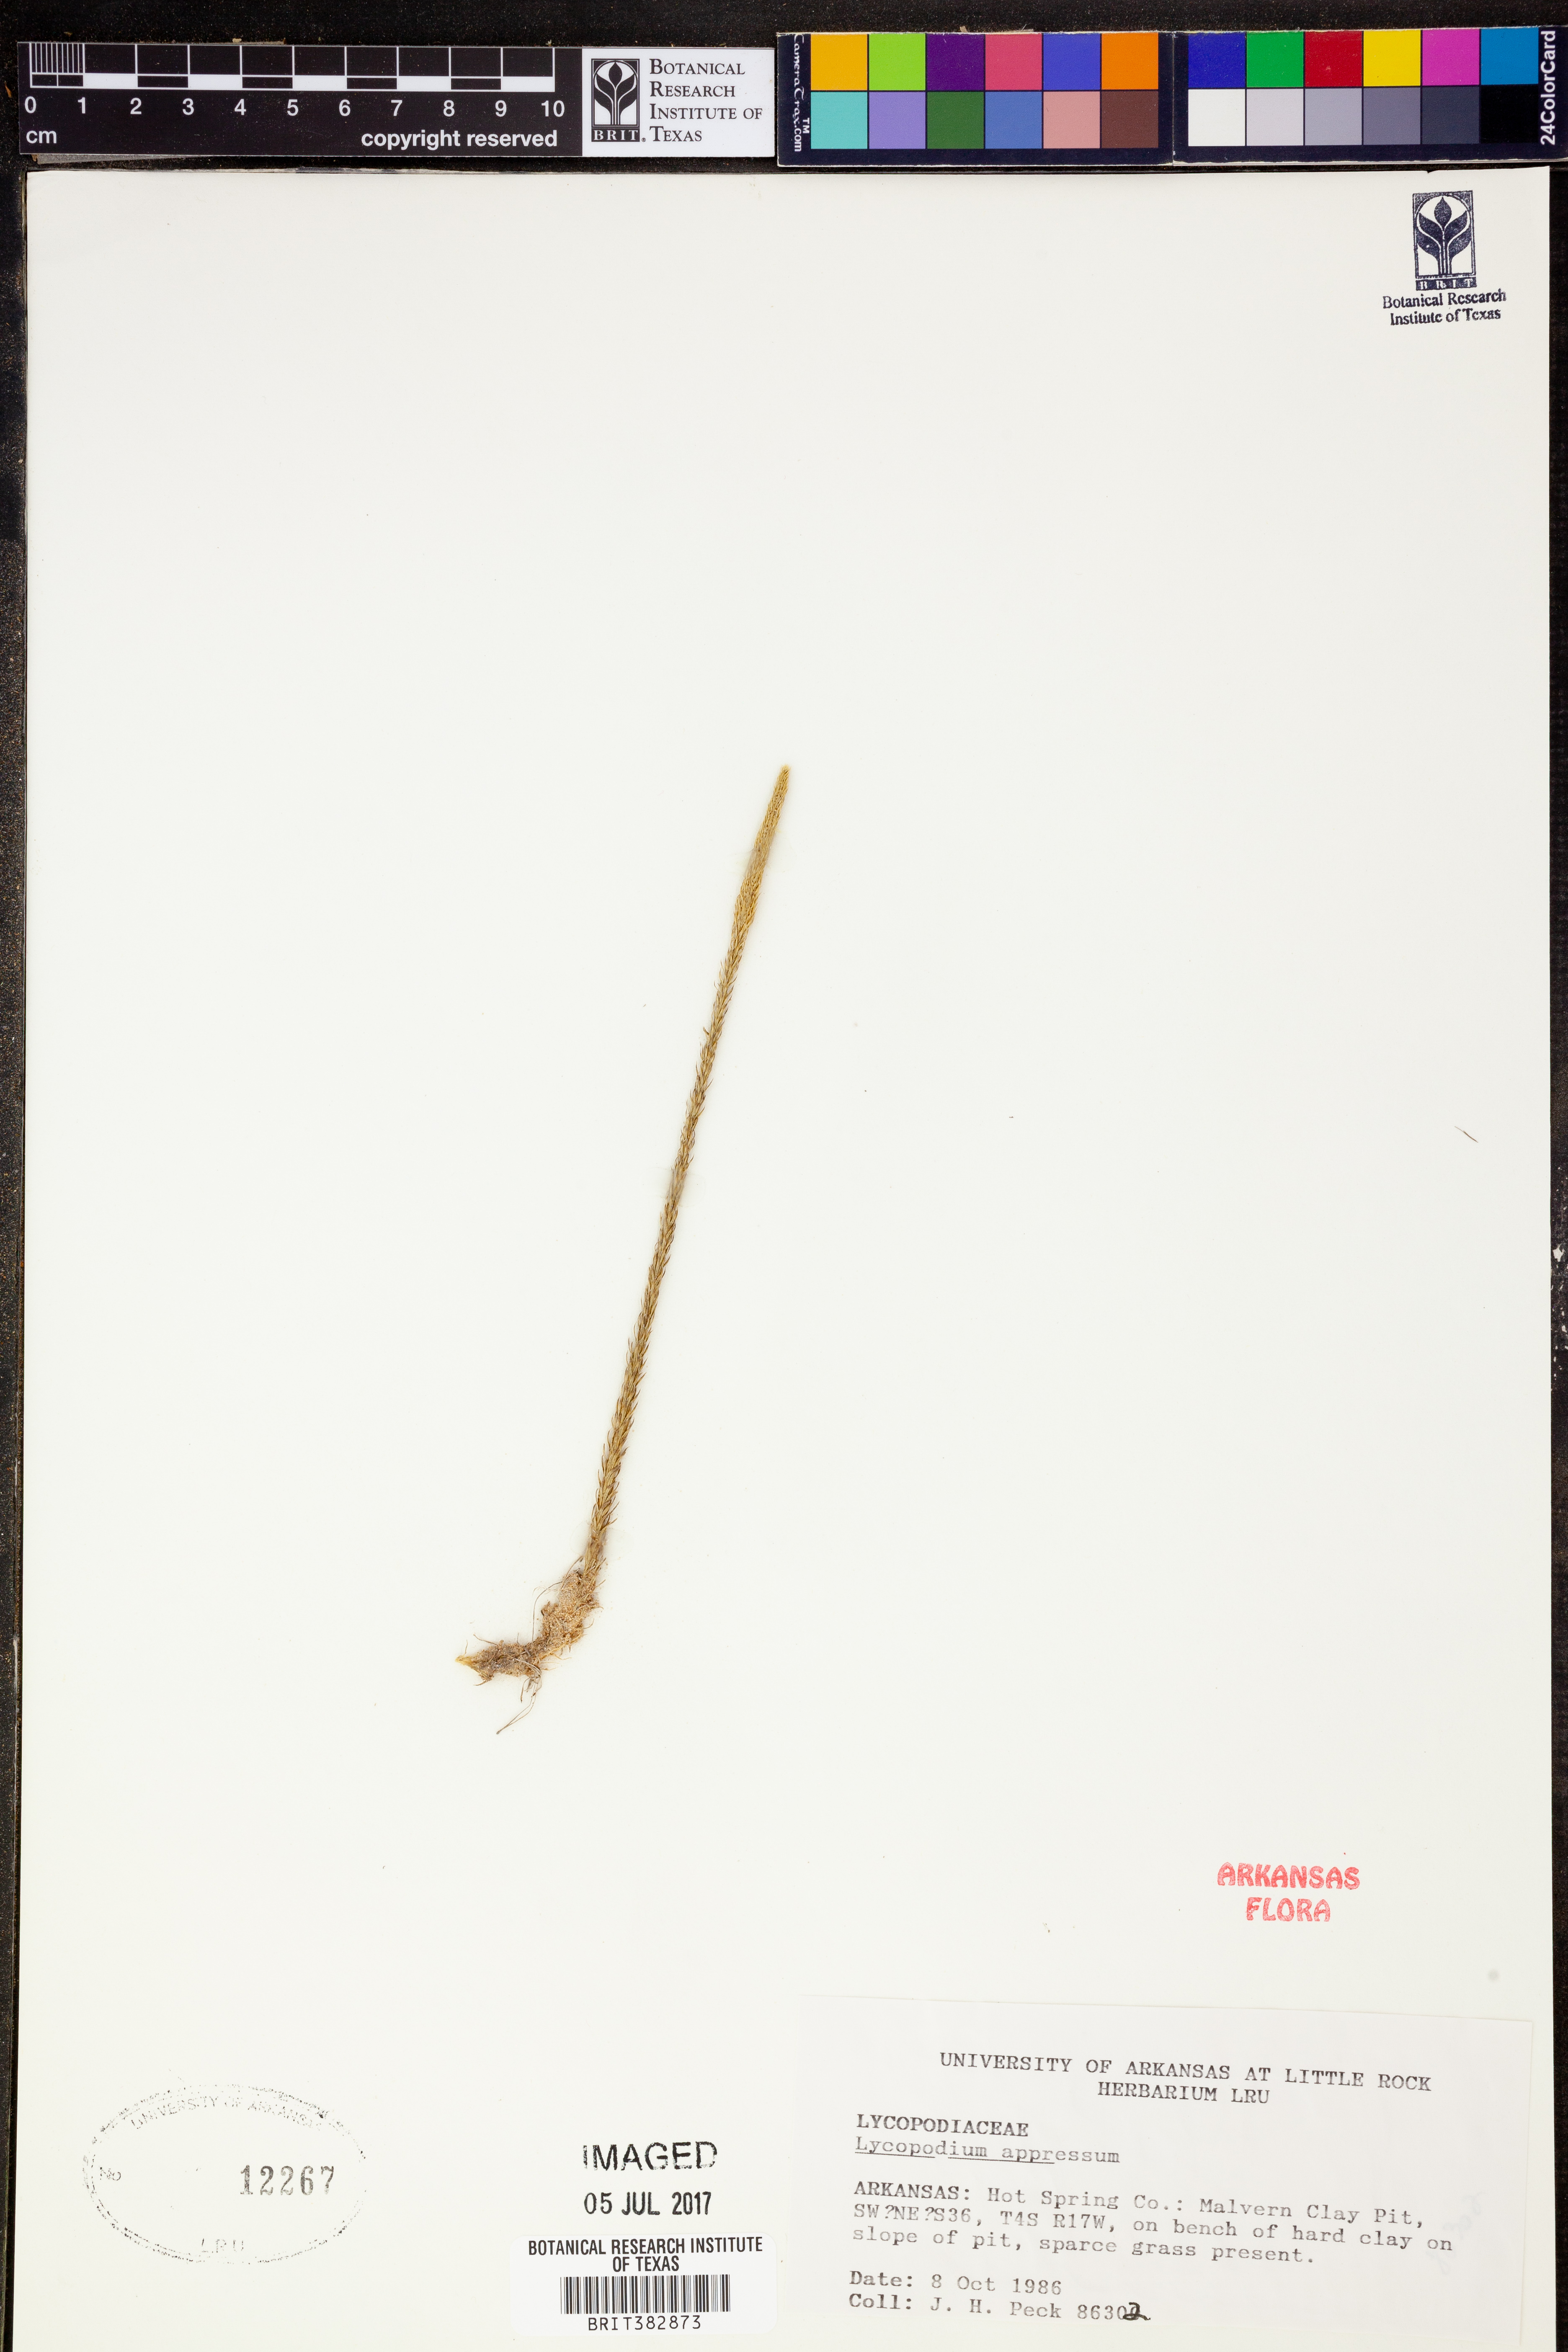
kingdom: Plantae
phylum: Tracheophyta
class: Lycopodiopsida
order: Lycopodiales
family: Lycopodiaceae
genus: Lycopodiella
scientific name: Lycopodiella appressa
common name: Appressed bog clubmoss
